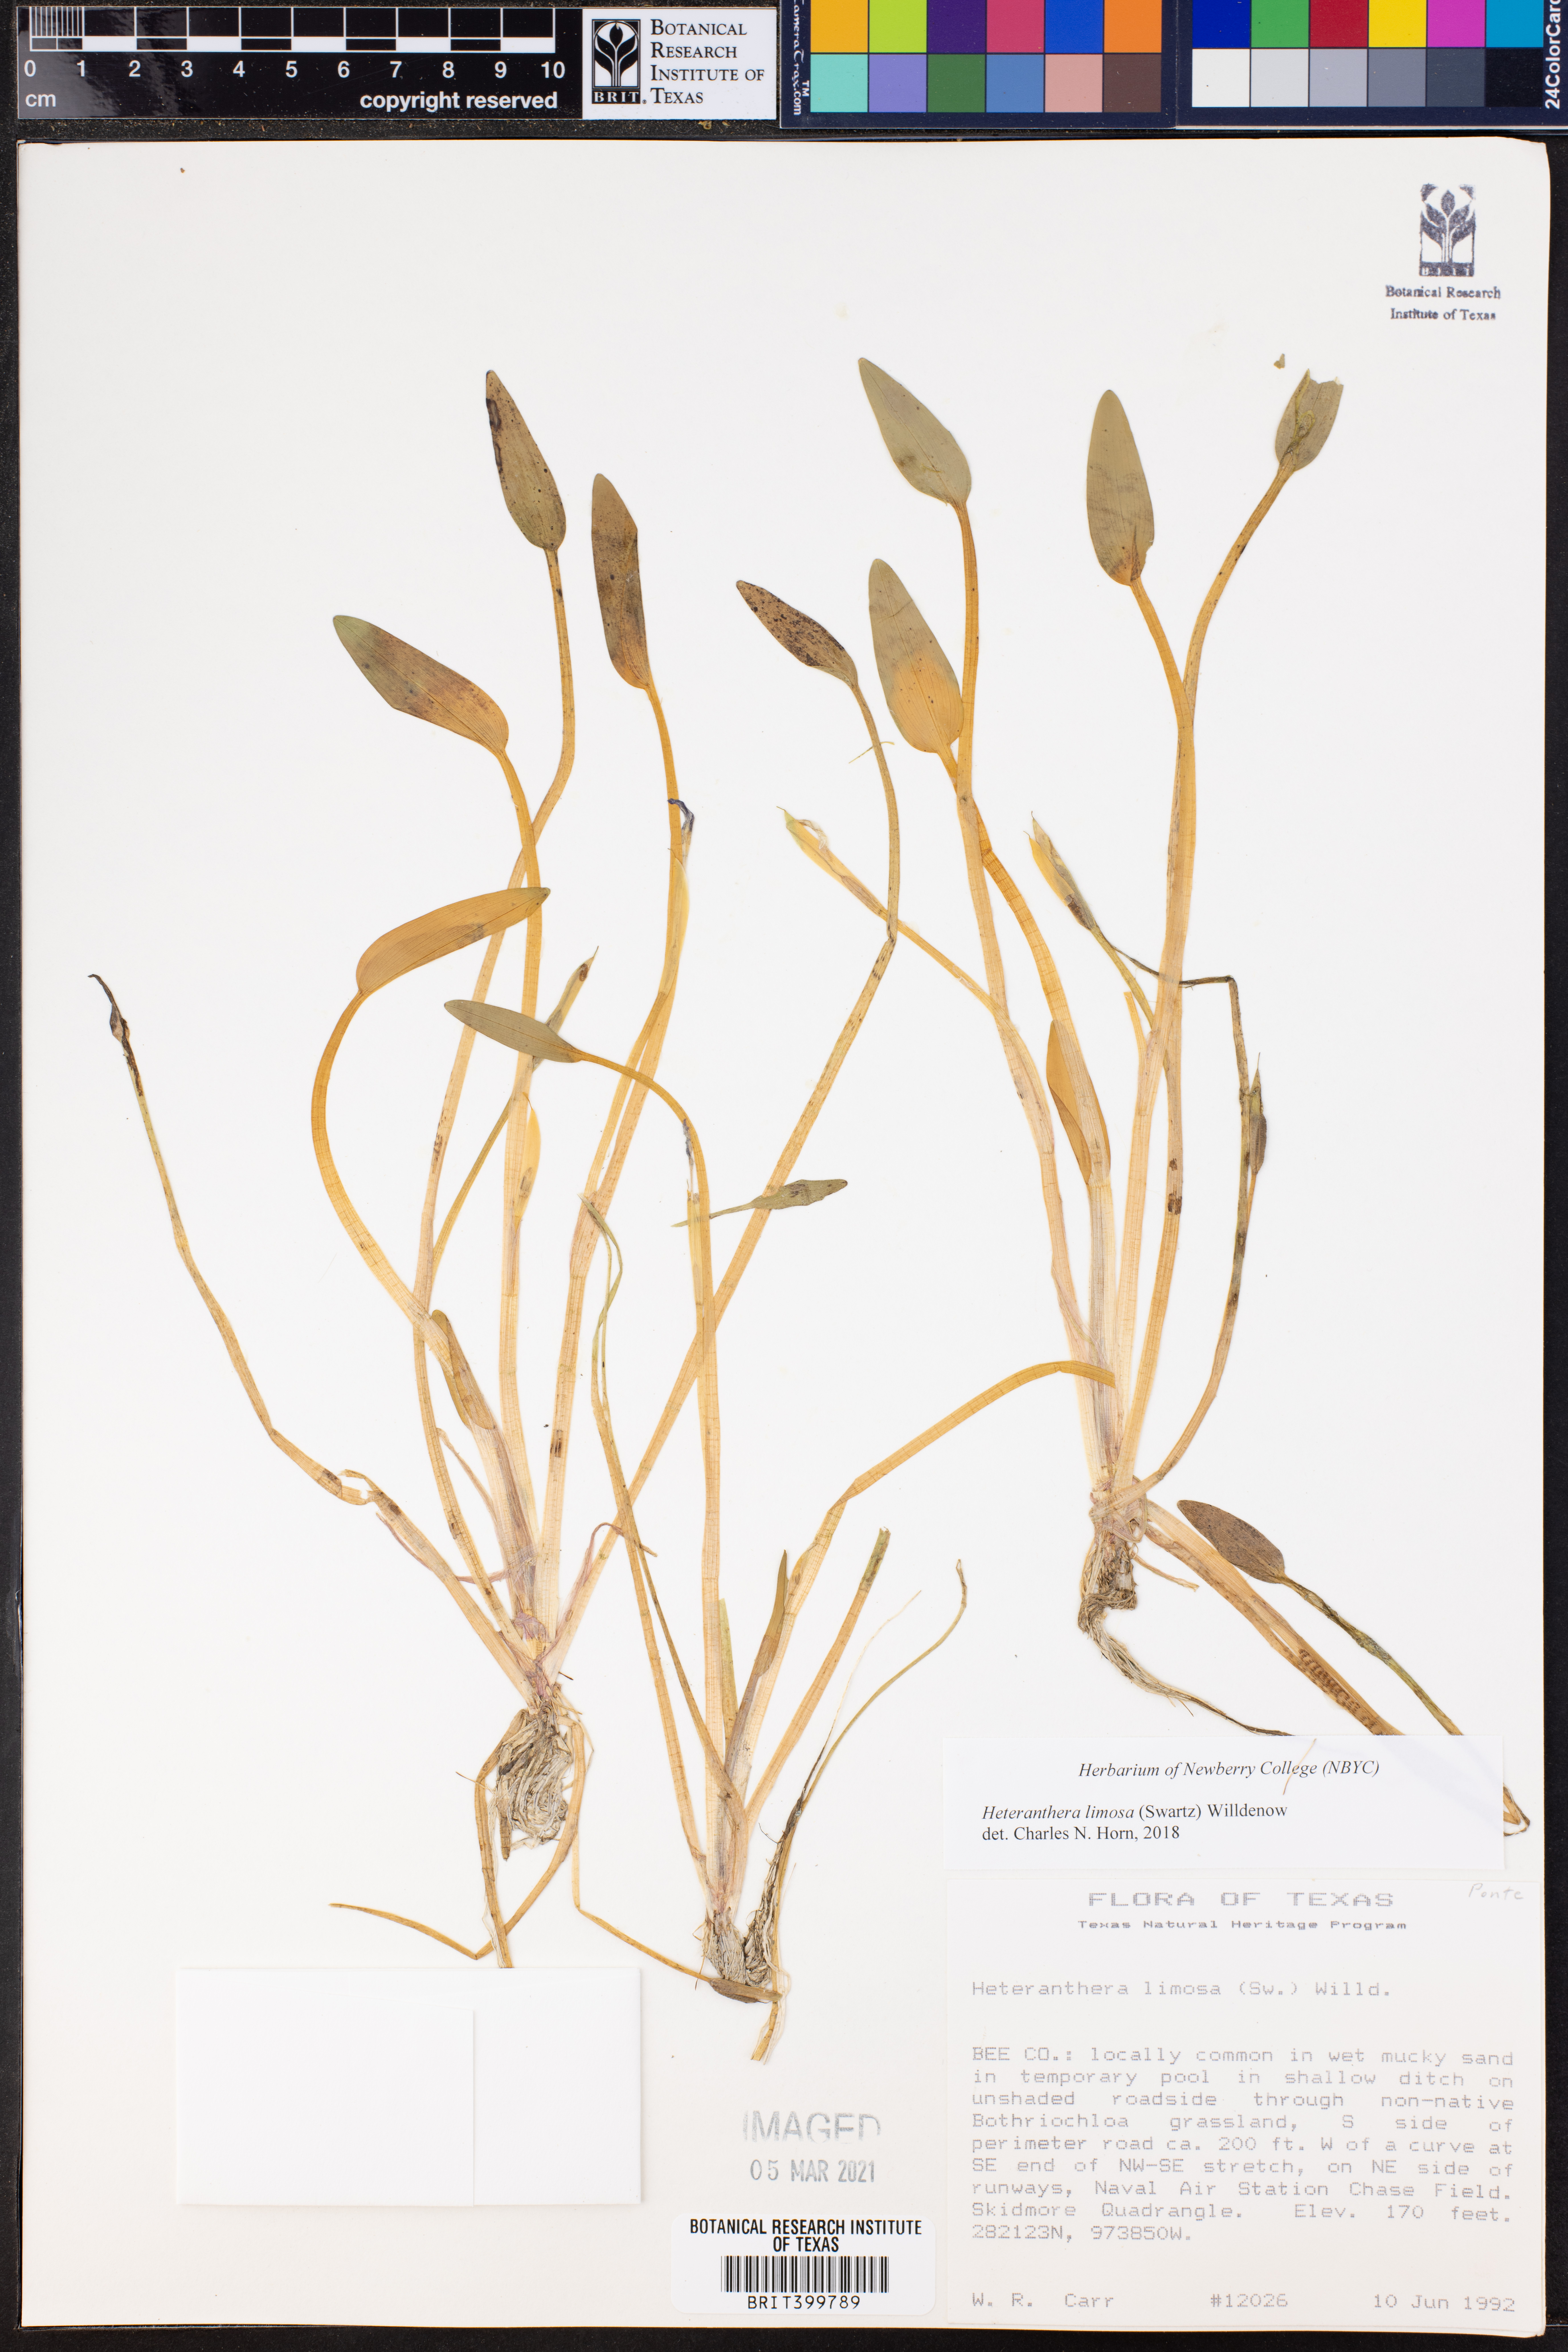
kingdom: Plantae
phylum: Tracheophyta
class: Liliopsida
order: Commelinales
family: Pontederiaceae
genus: Heteranthera
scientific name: Heteranthera limosa
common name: Blue mud-plantain
